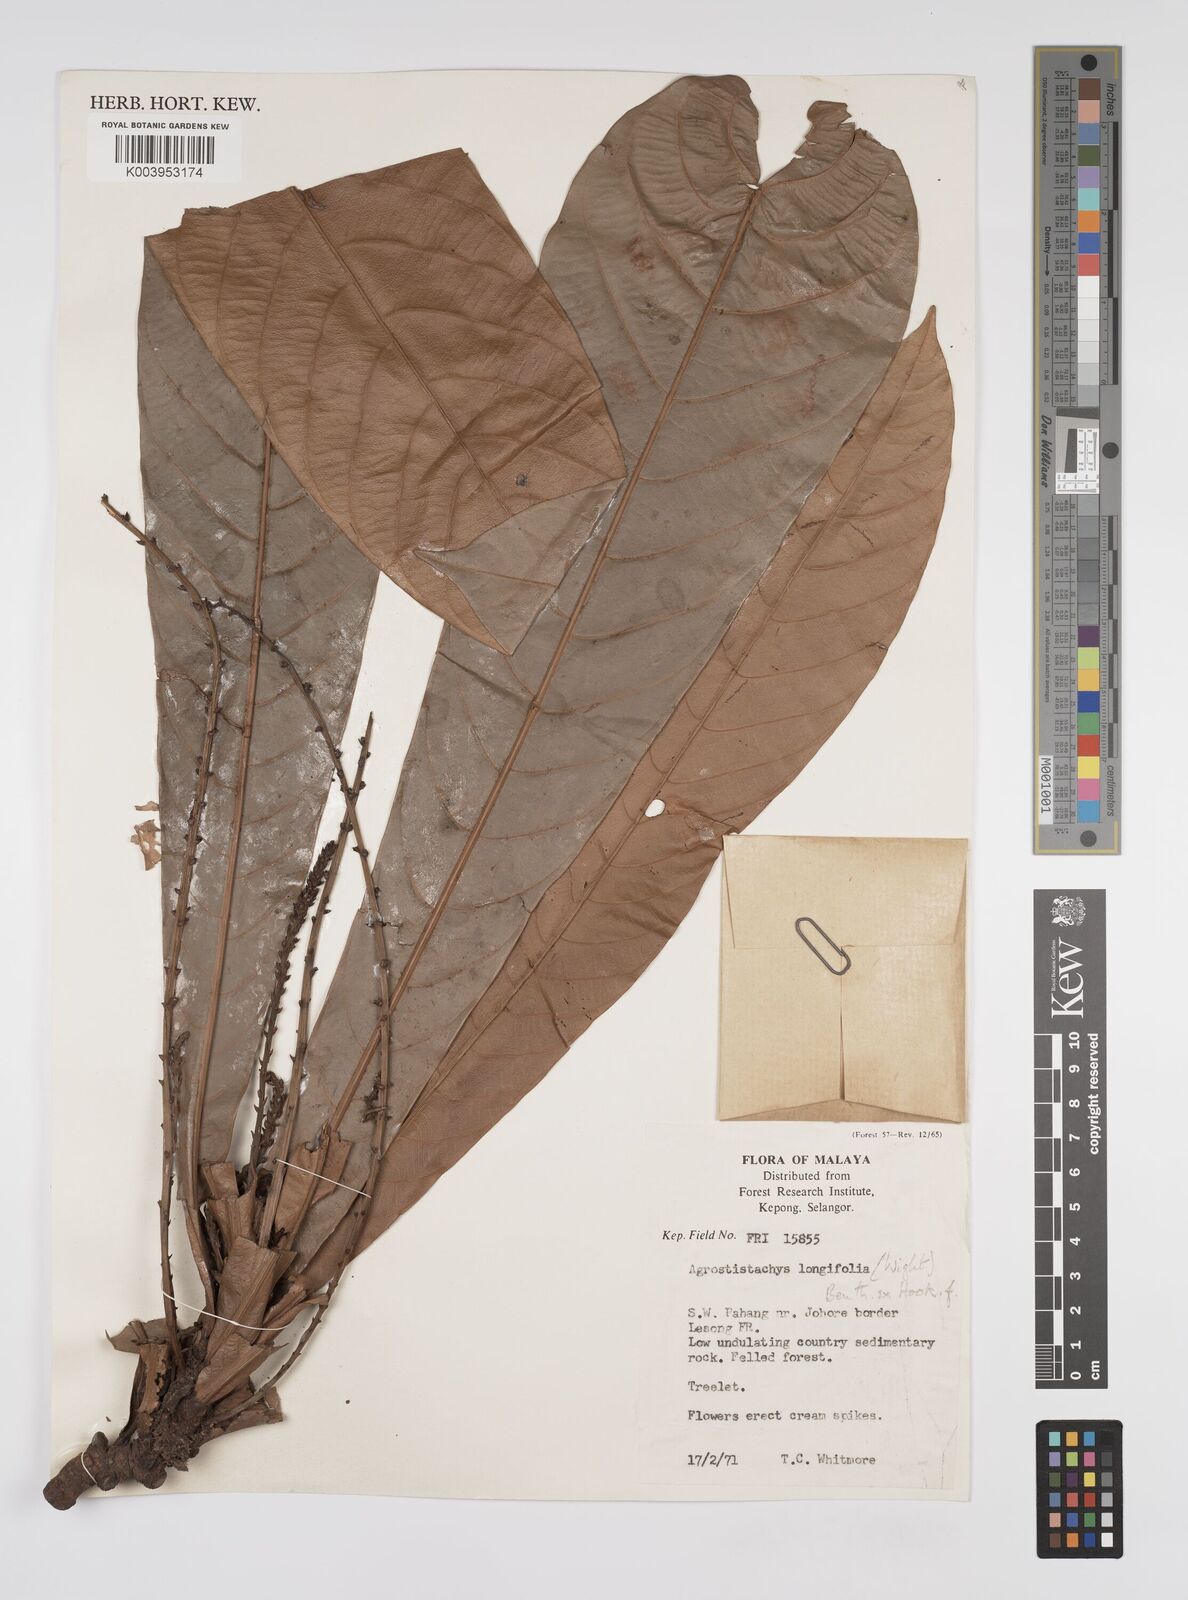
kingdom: Plantae
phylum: Tracheophyta
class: Magnoliopsida
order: Malpighiales
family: Euphorbiaceae
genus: Agrostistachys
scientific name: Agrostistachys borneensis
